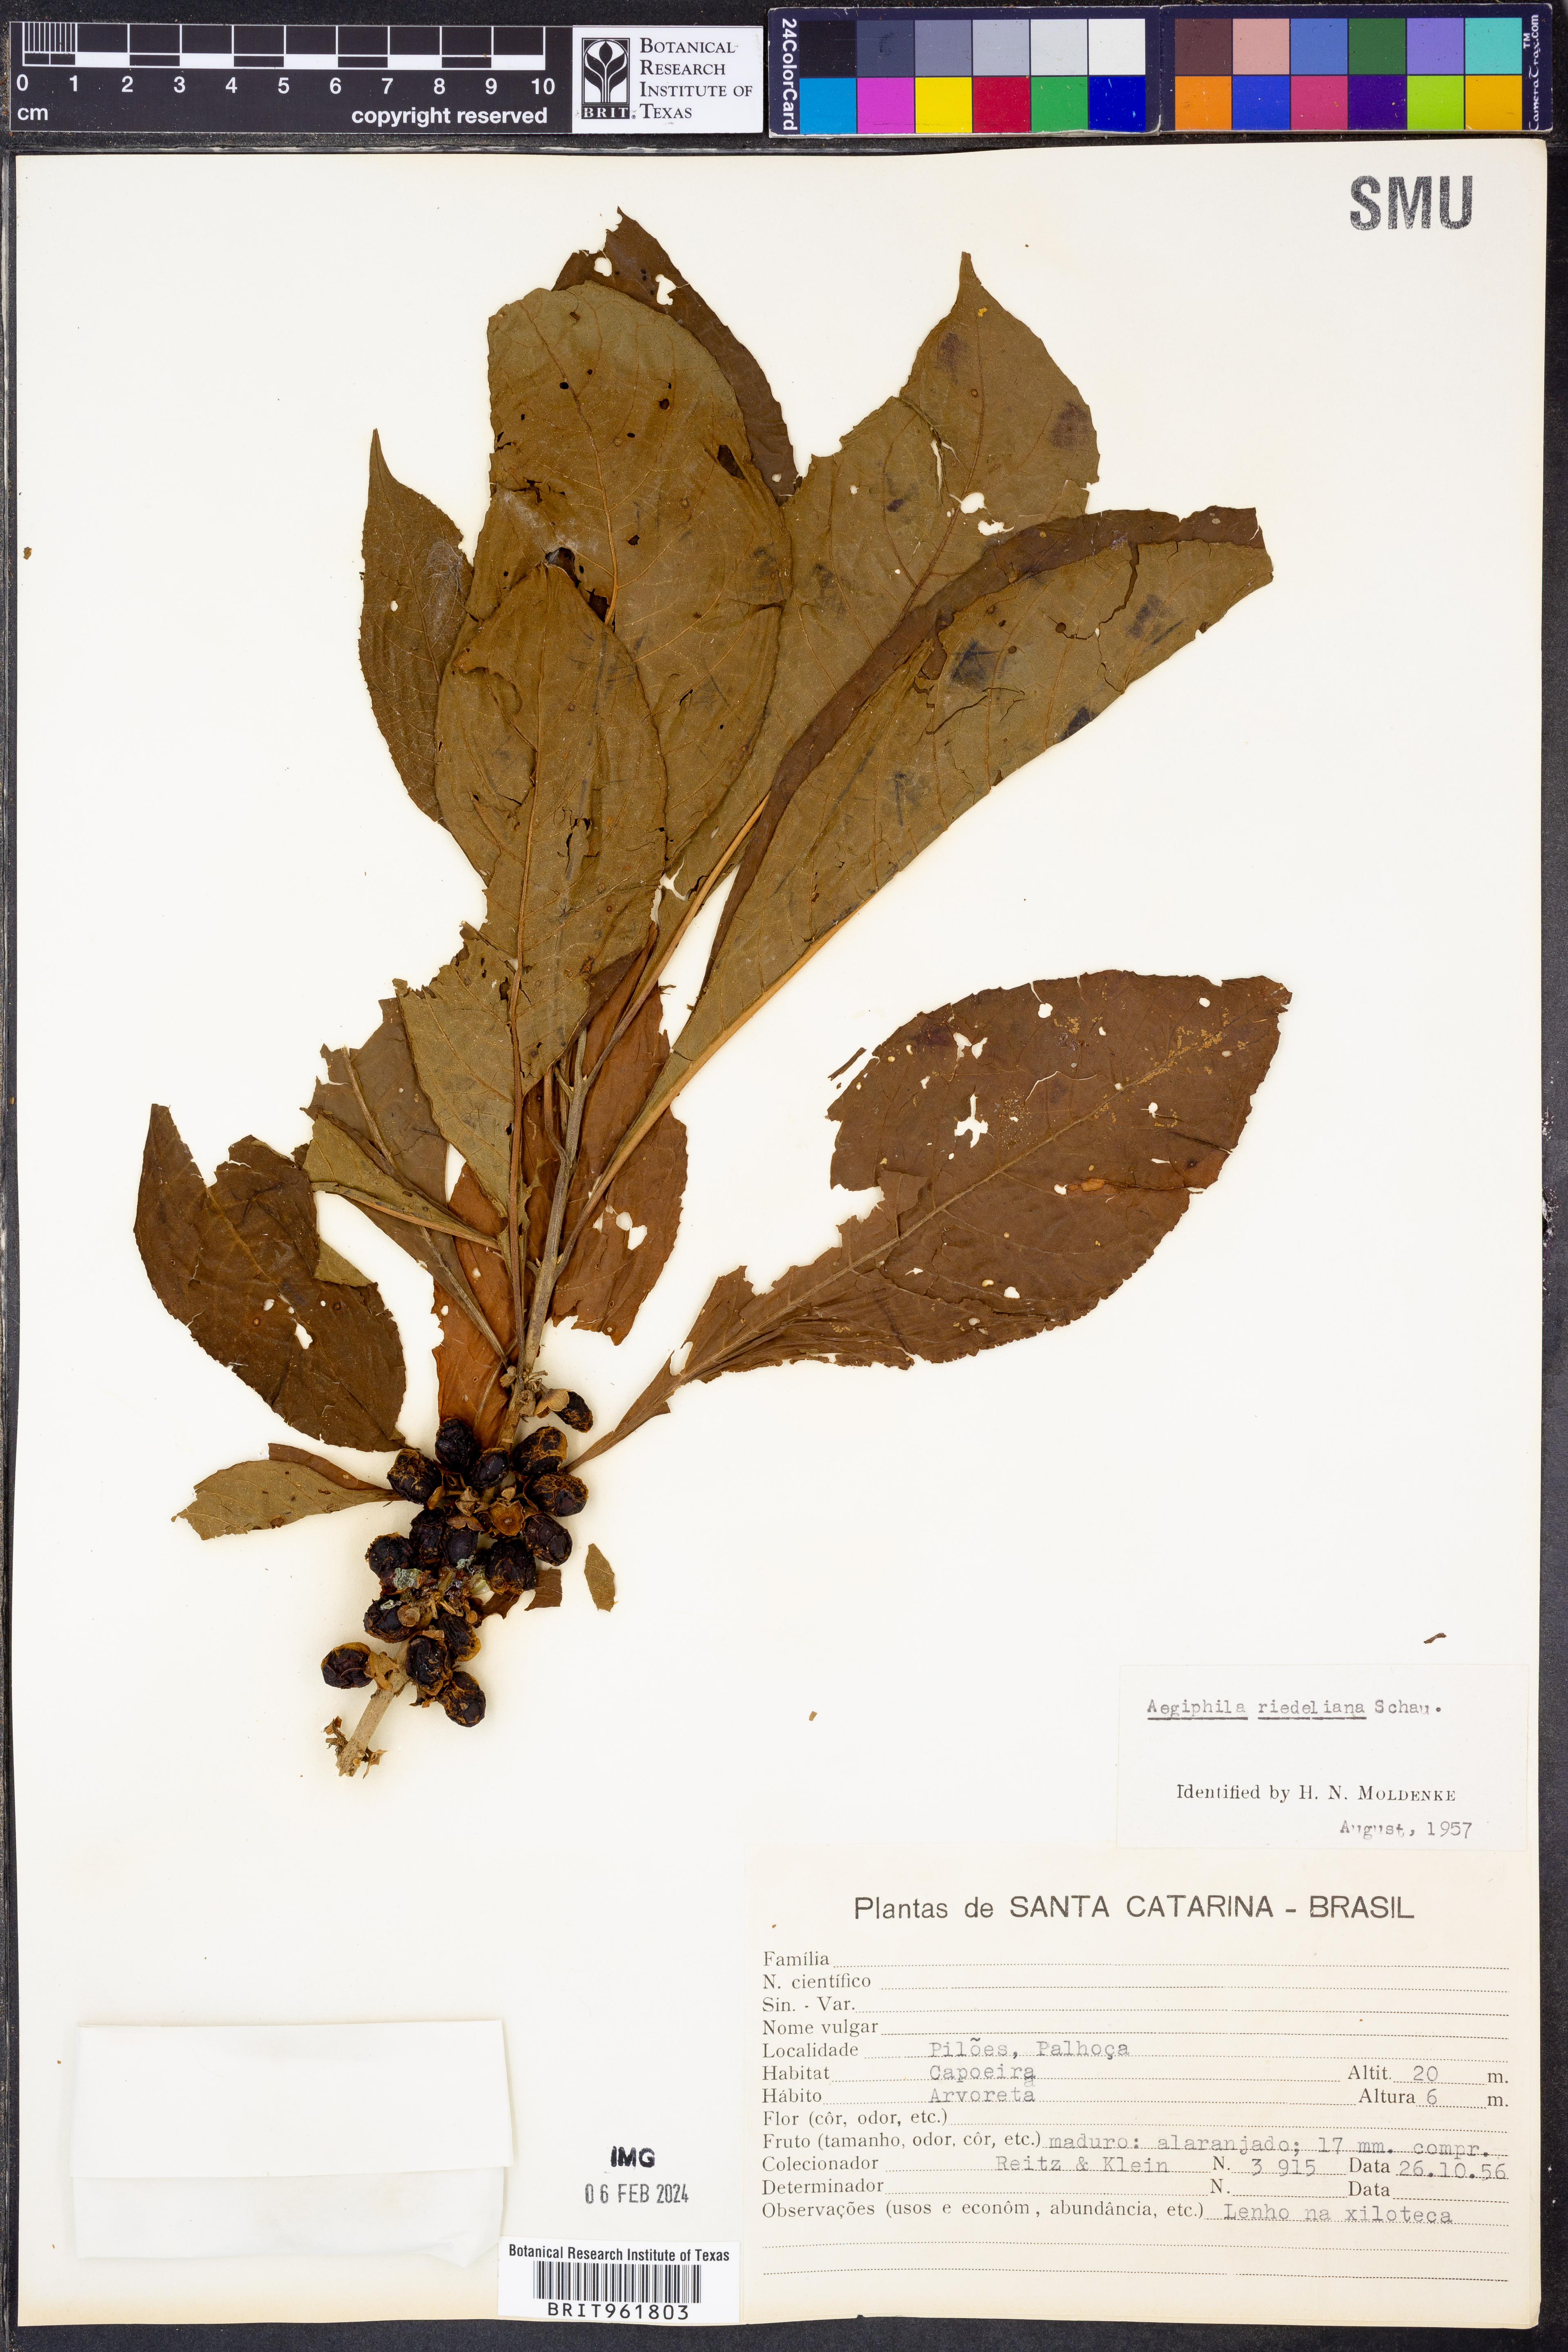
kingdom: Plantae
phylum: Tracheophyta
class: Magnoliopsida
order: Lamiales
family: Lamiaceae
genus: Aegiphila
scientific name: Aegiphila
